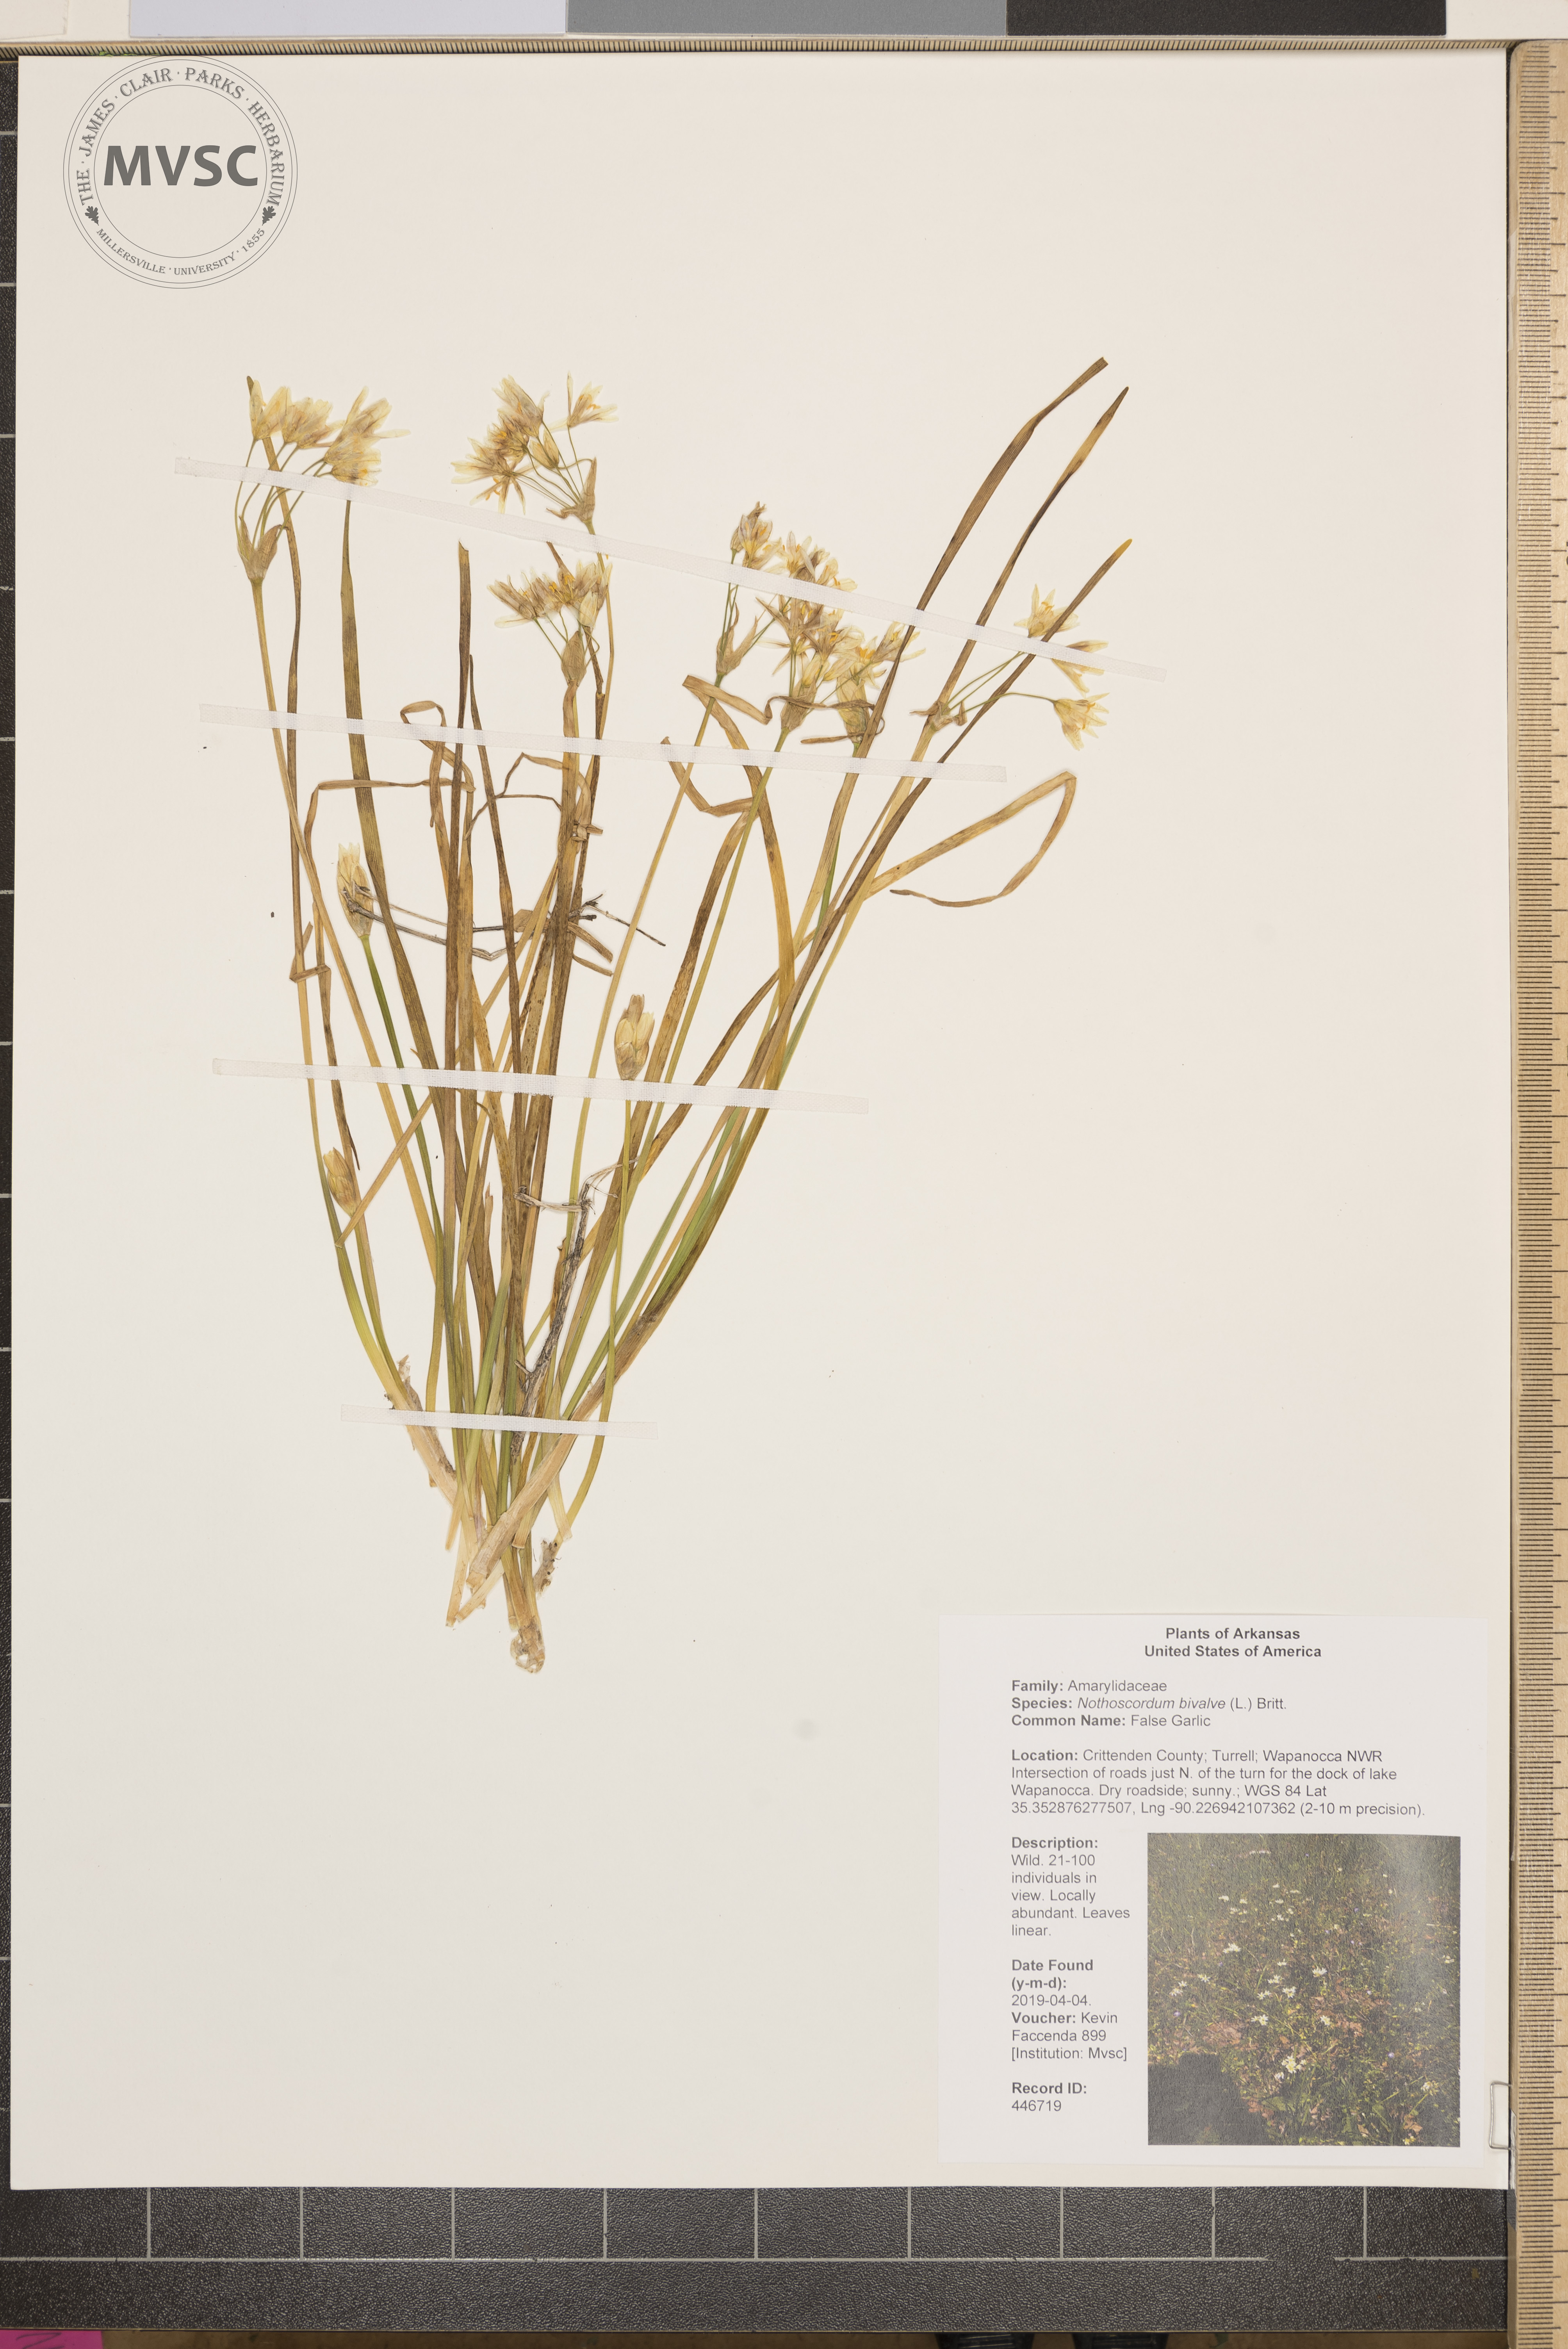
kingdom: Plantae
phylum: Tracheophyta
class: Liliopsida
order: Asparagales
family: Amaryllidaceae
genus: Nothoscordum
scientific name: Nothoscordum bivalve
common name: False Garlic
